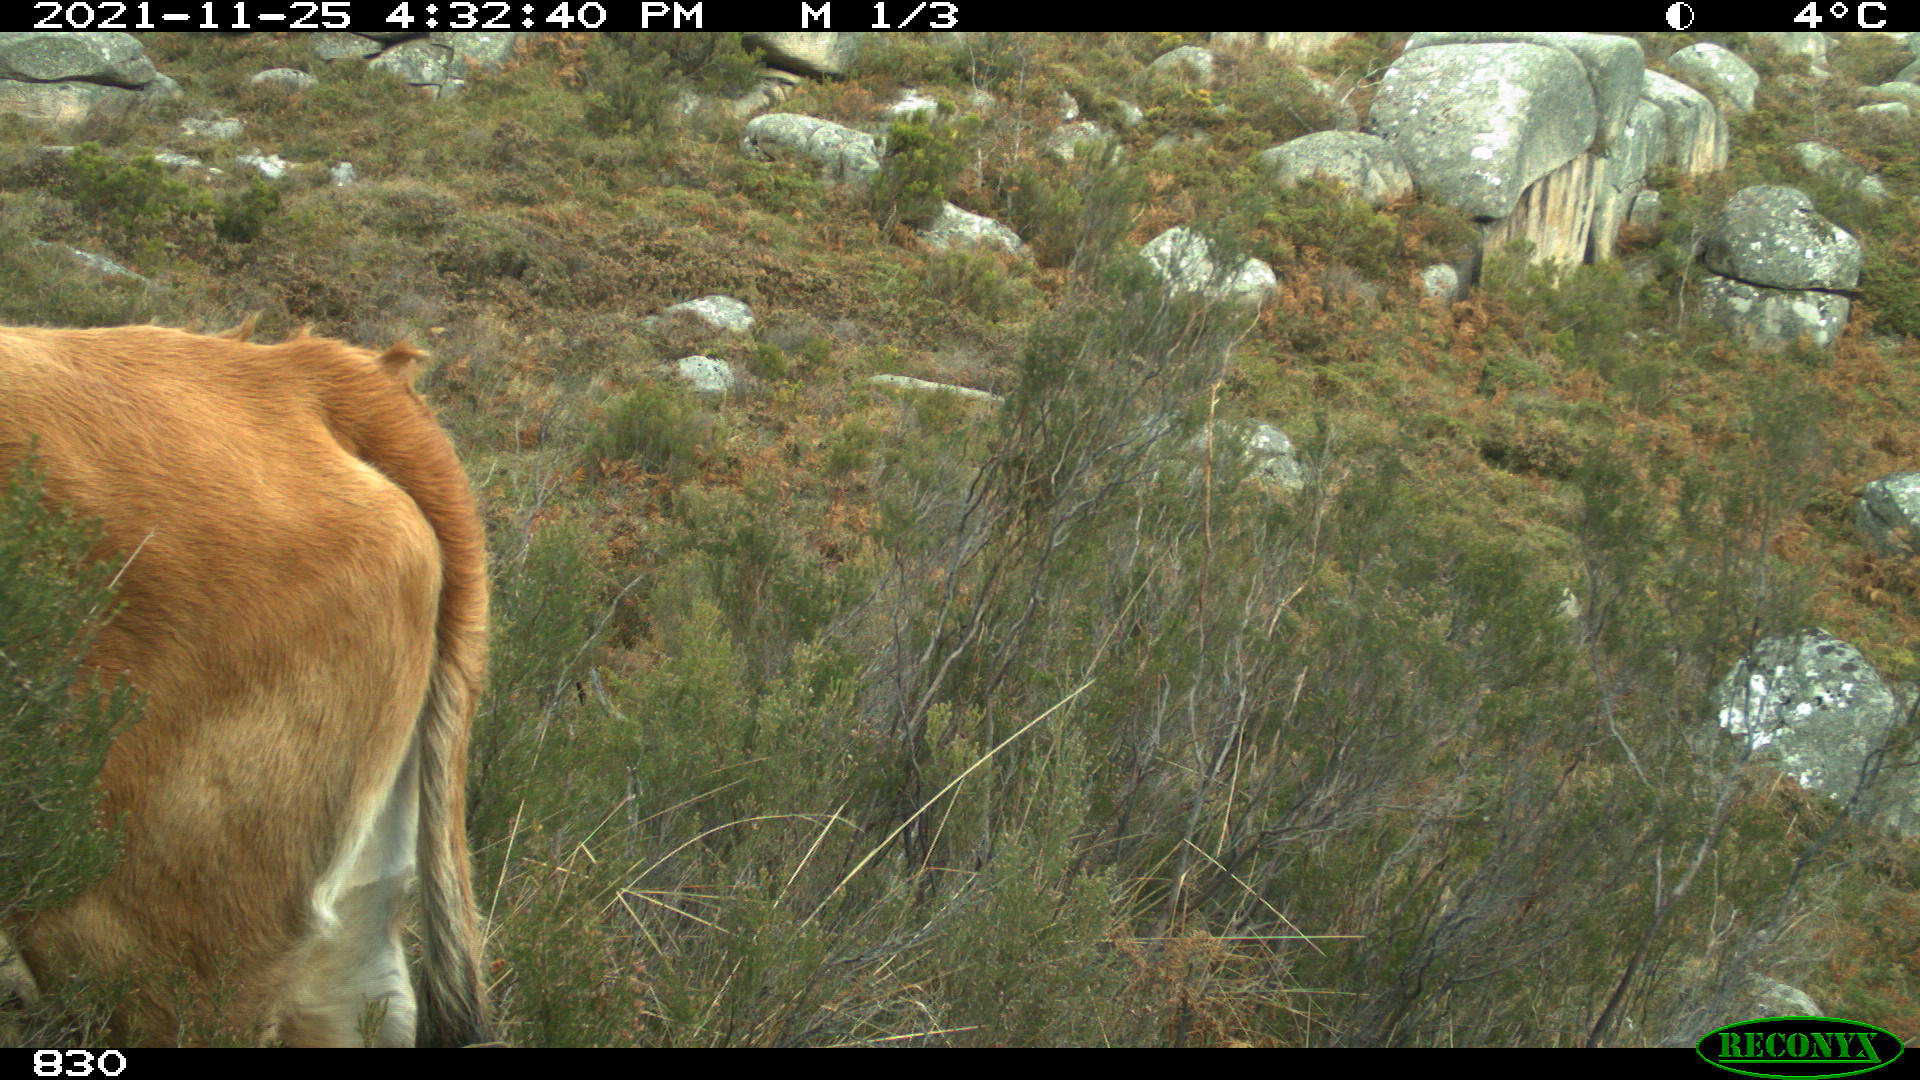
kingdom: Animalia
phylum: Chordata
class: Mammalia
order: Artiodactyla
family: Bovidae
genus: Bos
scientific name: Bos taurus
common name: Domesticated cattle
